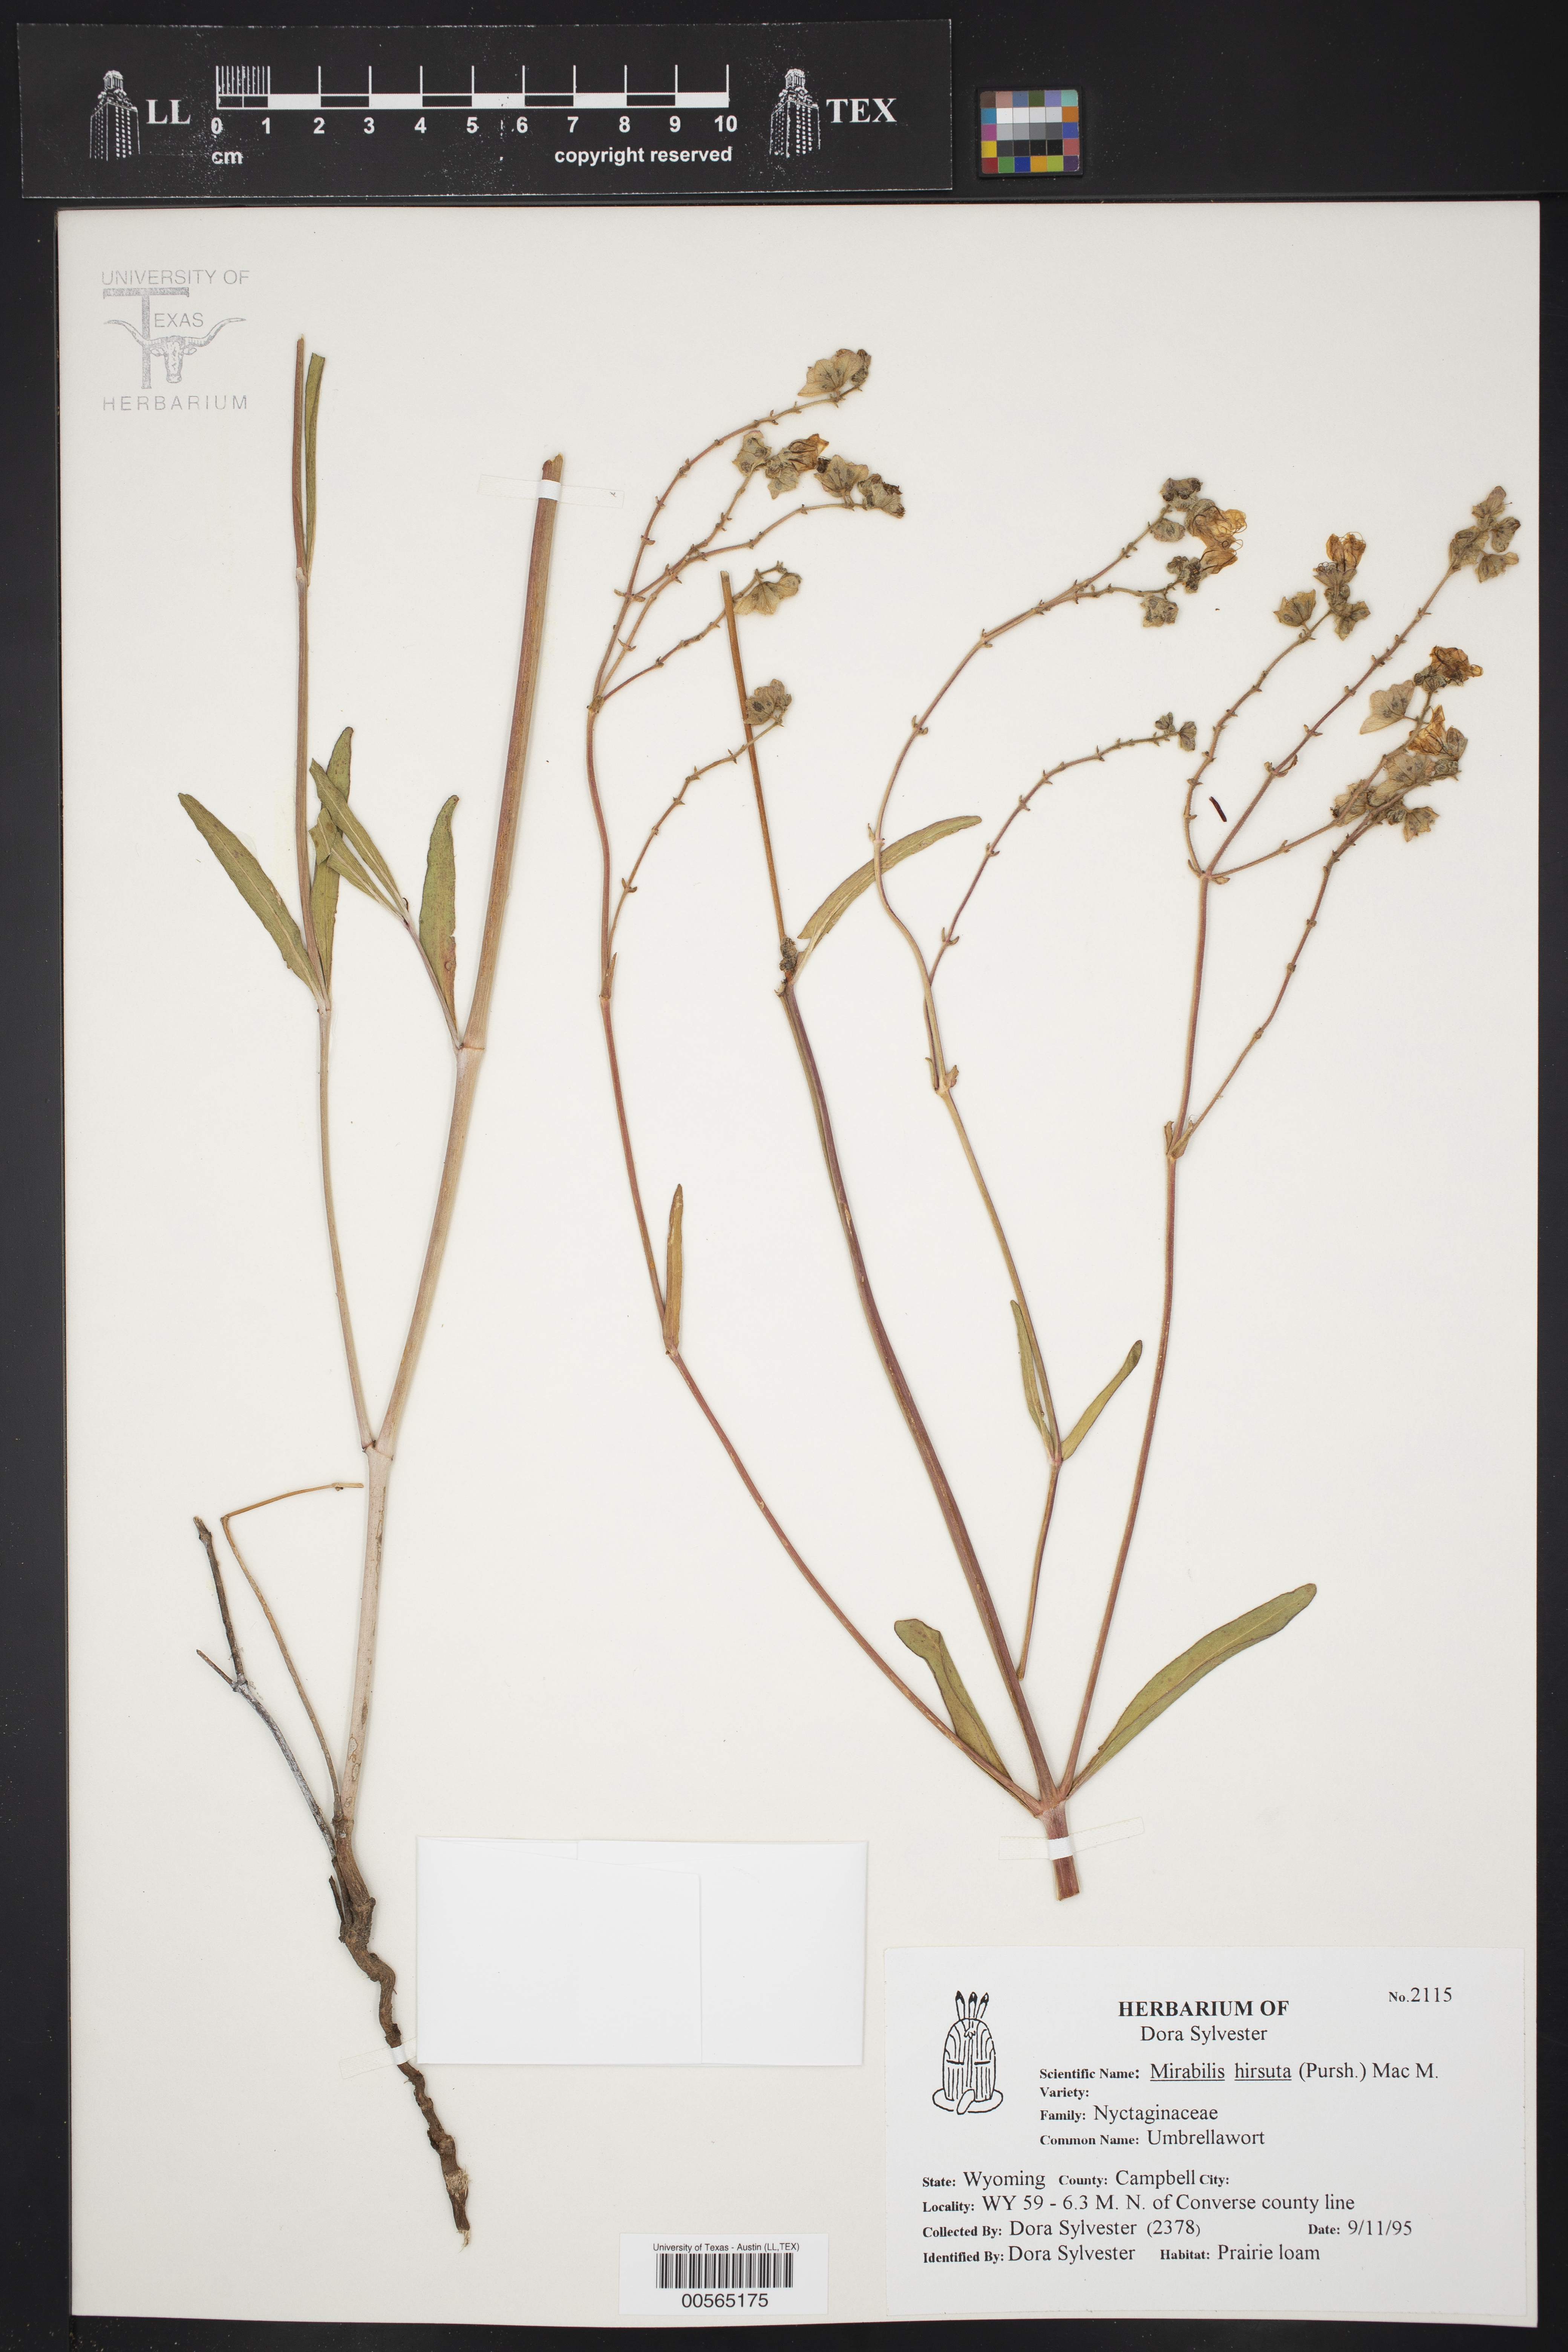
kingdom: Plantae
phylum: Tracheophyta
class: Magnoliopsida
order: Caryophyllales
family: Nyctaginaceae
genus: Mirabilis
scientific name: Mirabilis hirsuta
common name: Hairy four-o'clock
